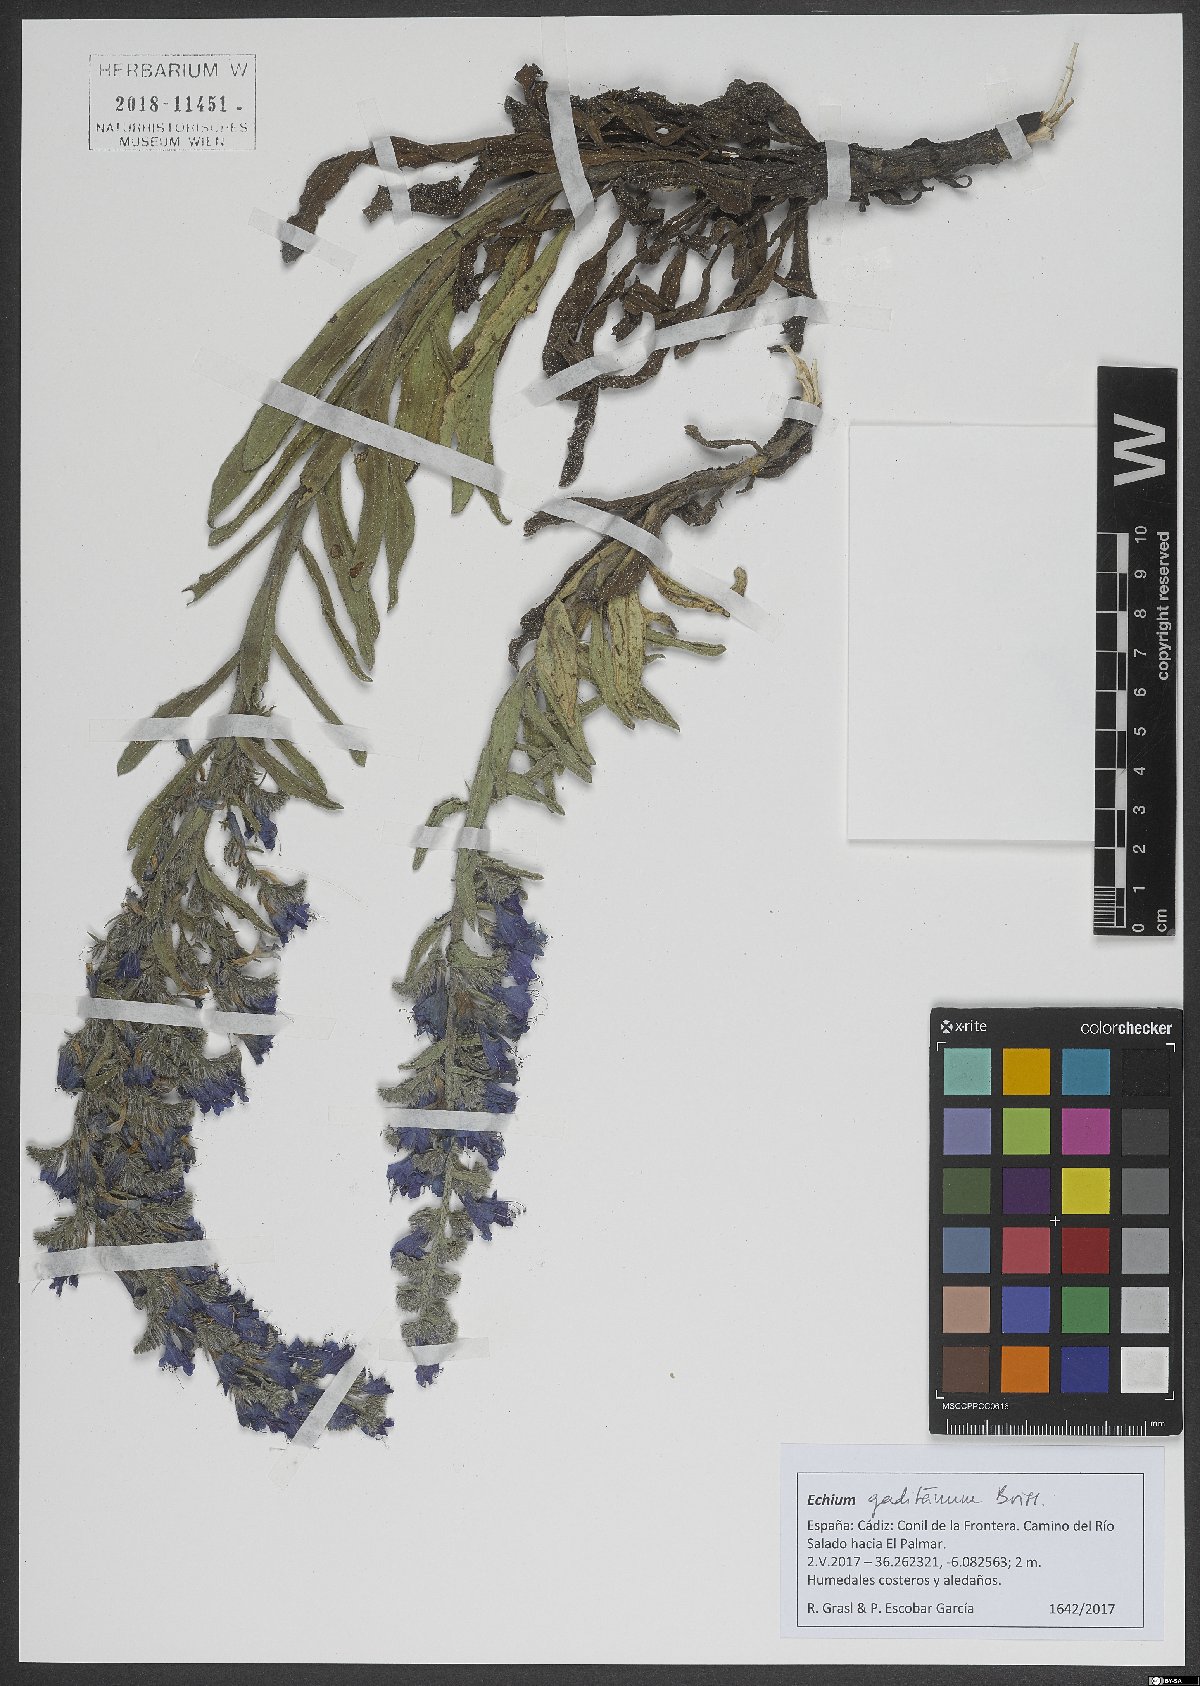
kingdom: Plantae
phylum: Tracheophyta
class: Magnoliopsida
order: Boraginales
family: Boraginaceae
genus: Echium
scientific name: Echium gaditanum
